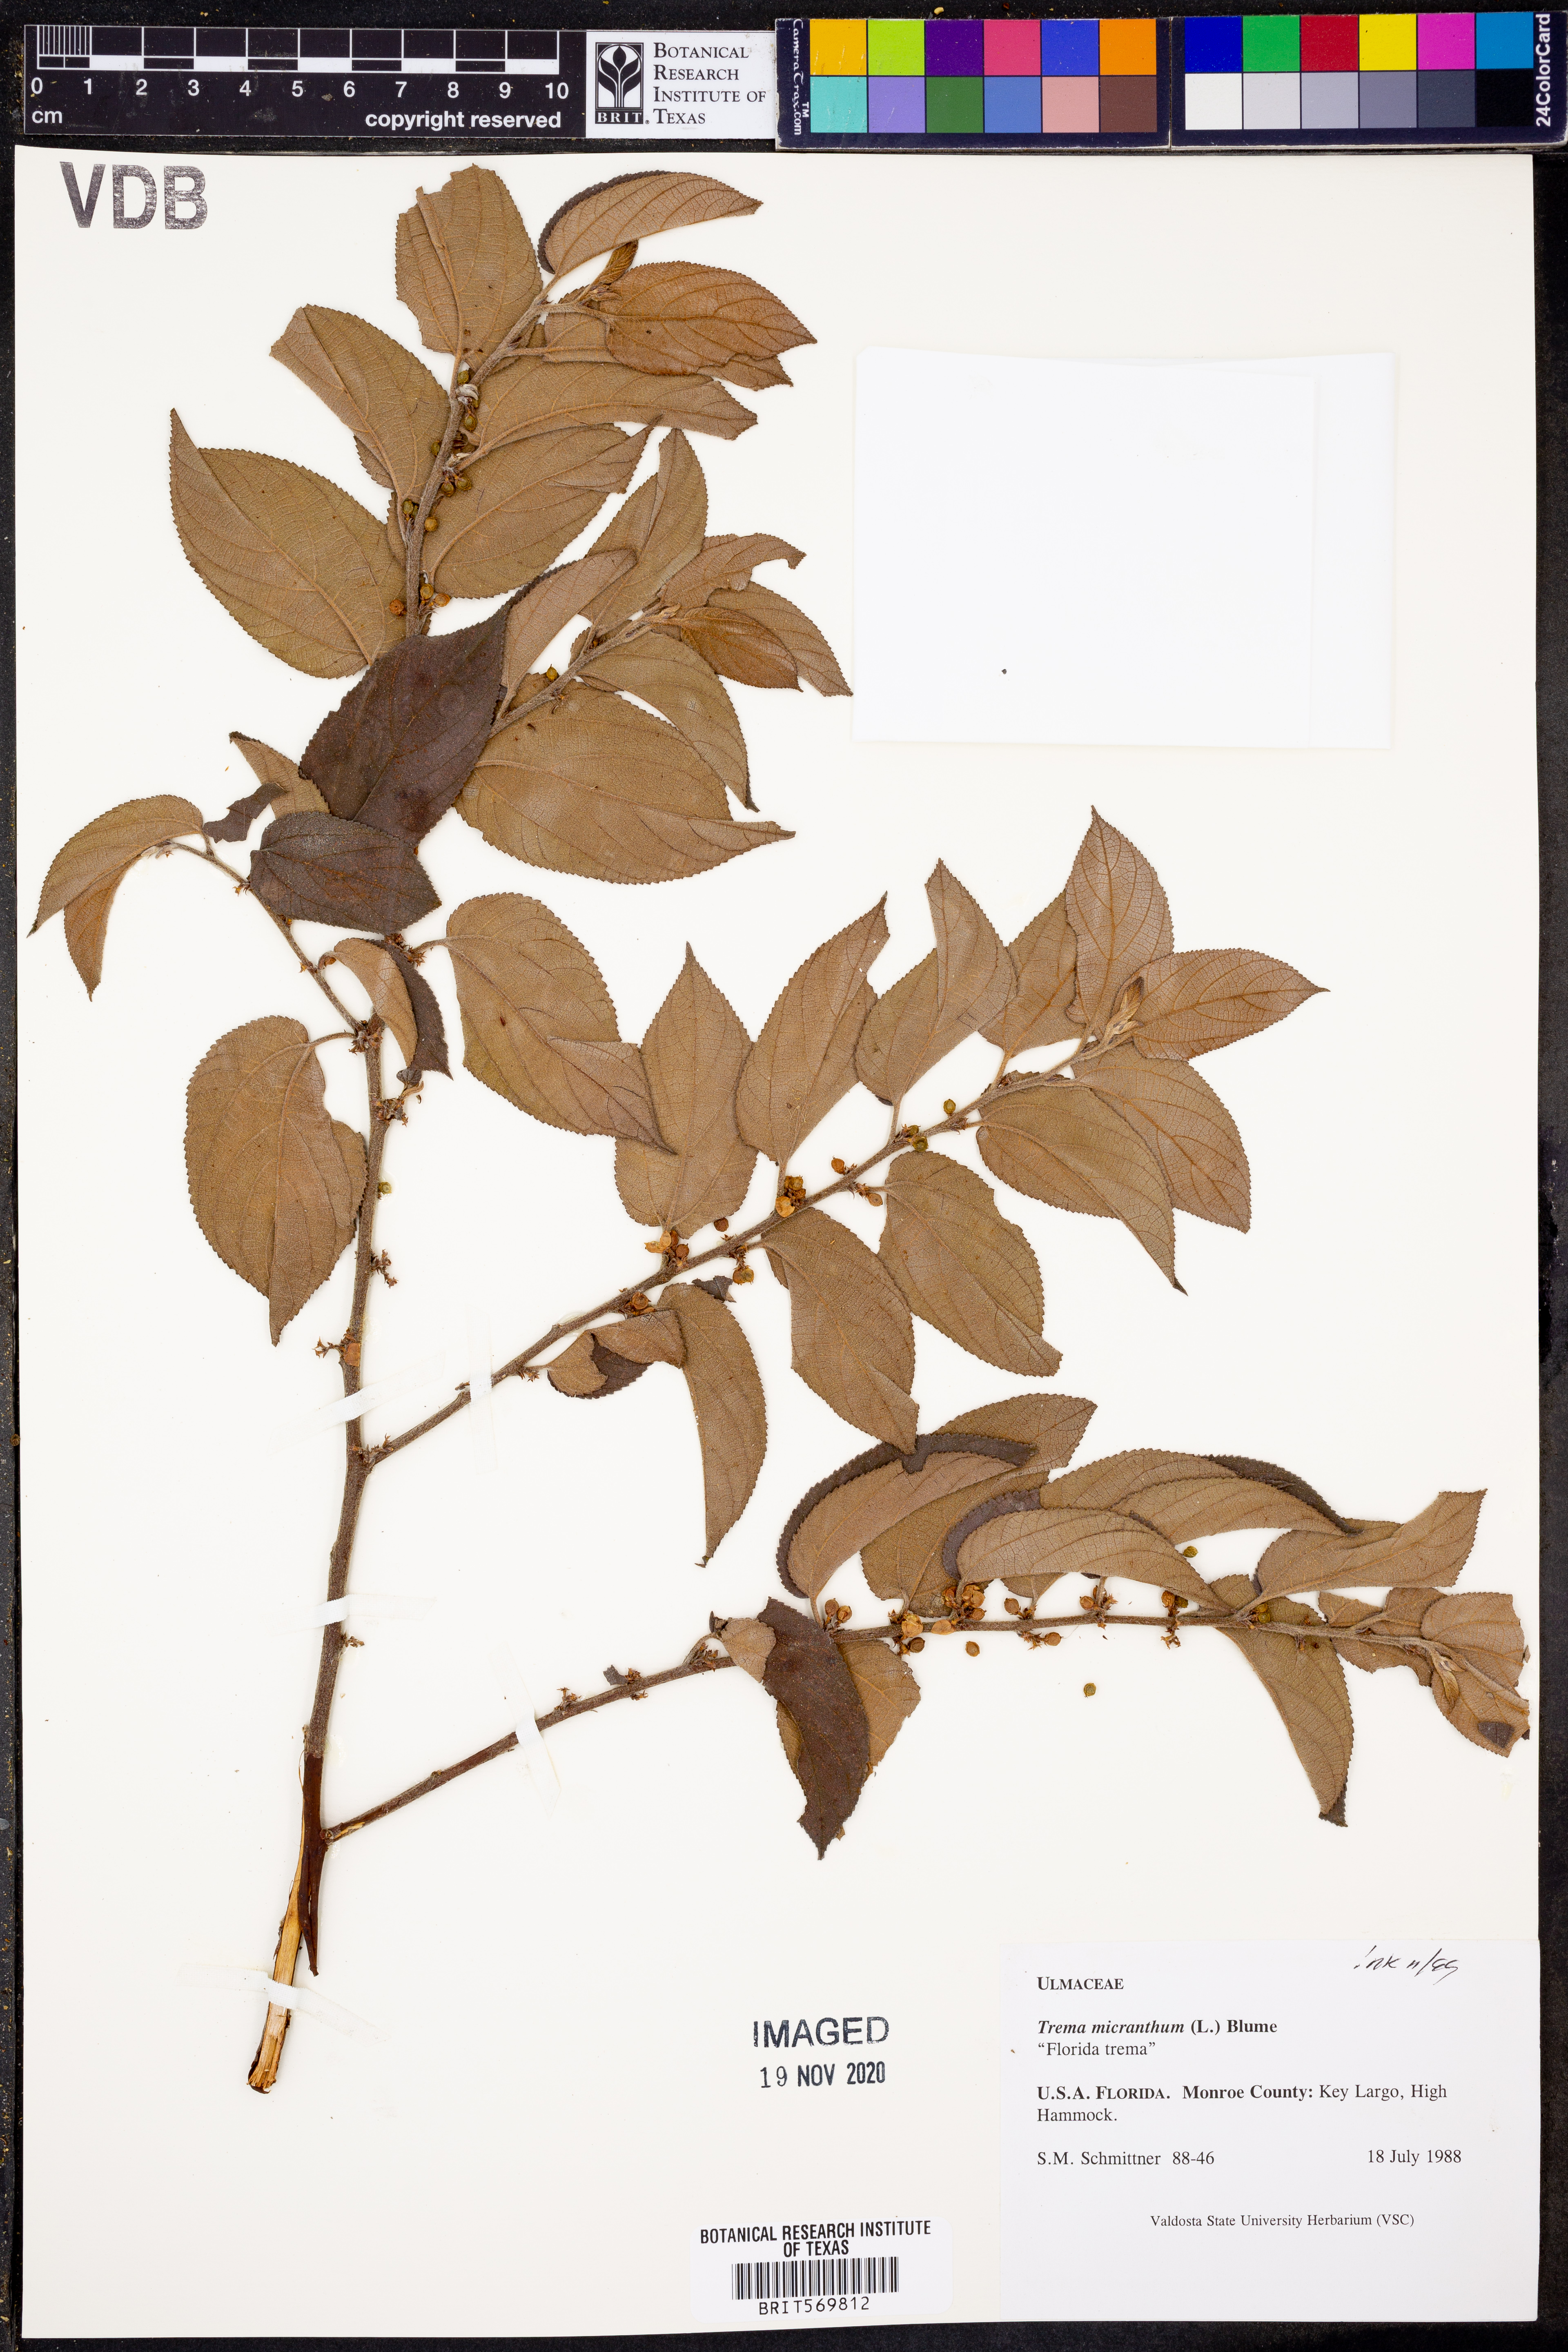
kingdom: Plantae
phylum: Tracheophyta
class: Magnoliopsida
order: Rosales
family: Cannabaceae
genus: Trema
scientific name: Trema micranthum
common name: Jamaican nettletree
